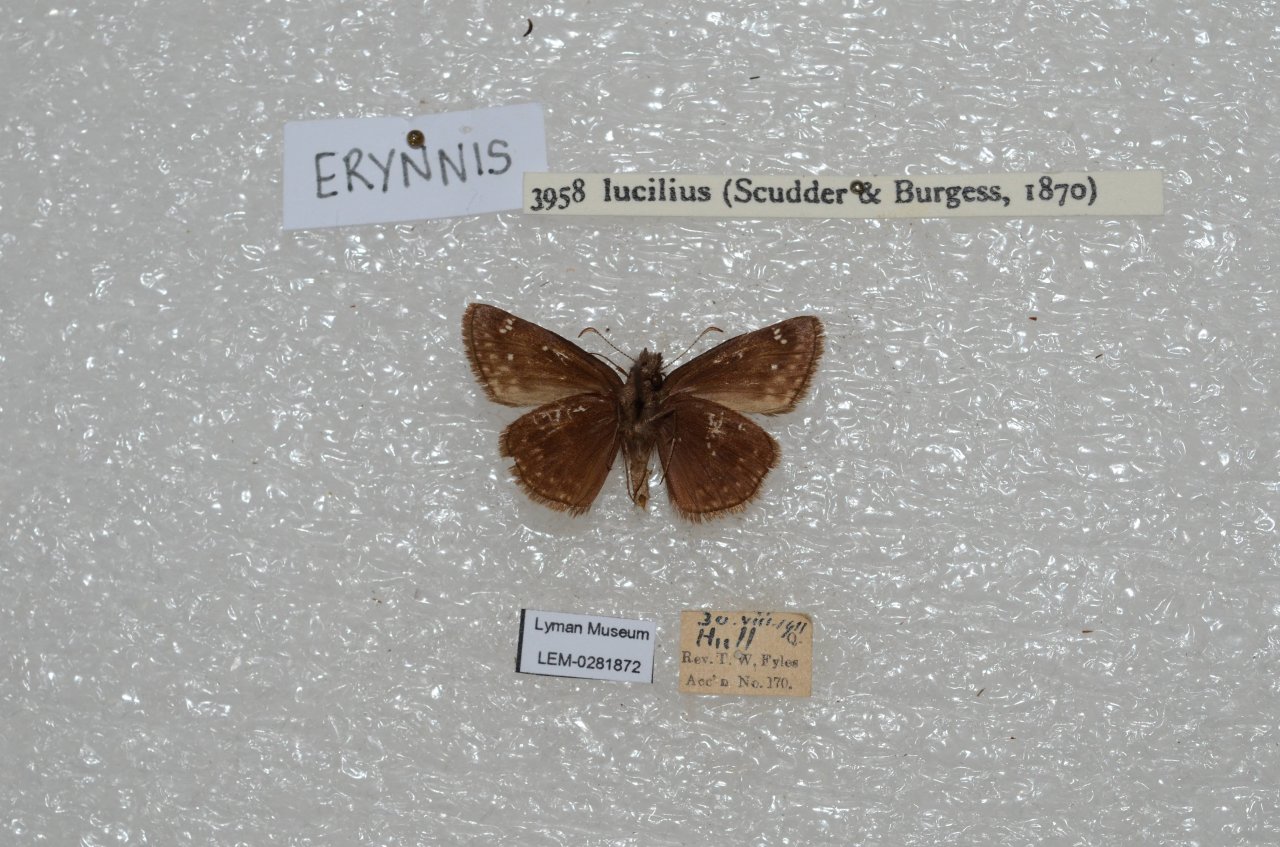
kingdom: Animalia
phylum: Arthropoda
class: Insecta
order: Lepidoptera
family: Hesperiidae
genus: Gesta
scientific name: Gesta
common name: Columbine Duskywing
